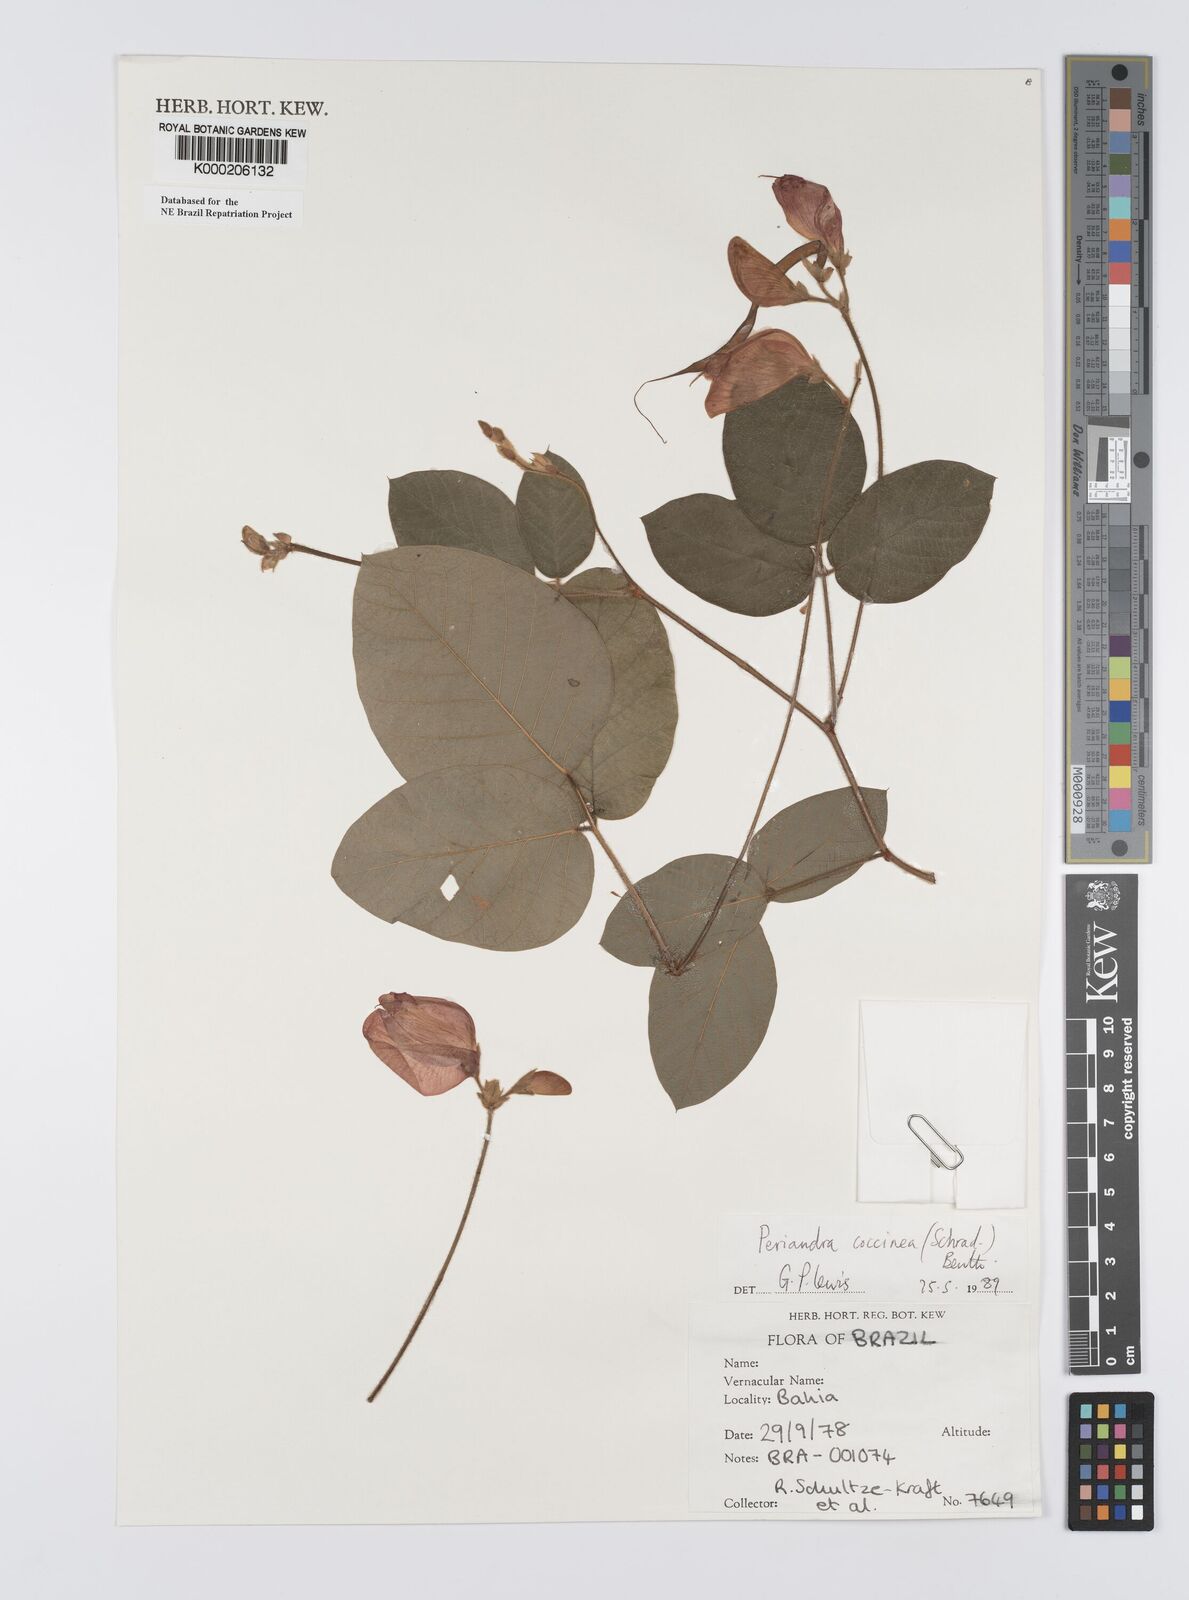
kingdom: Plantae
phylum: Tracheophyta
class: Magnoliopsida
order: Fabales
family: Fabaceae
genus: Periandra
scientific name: Periandra coccinea
